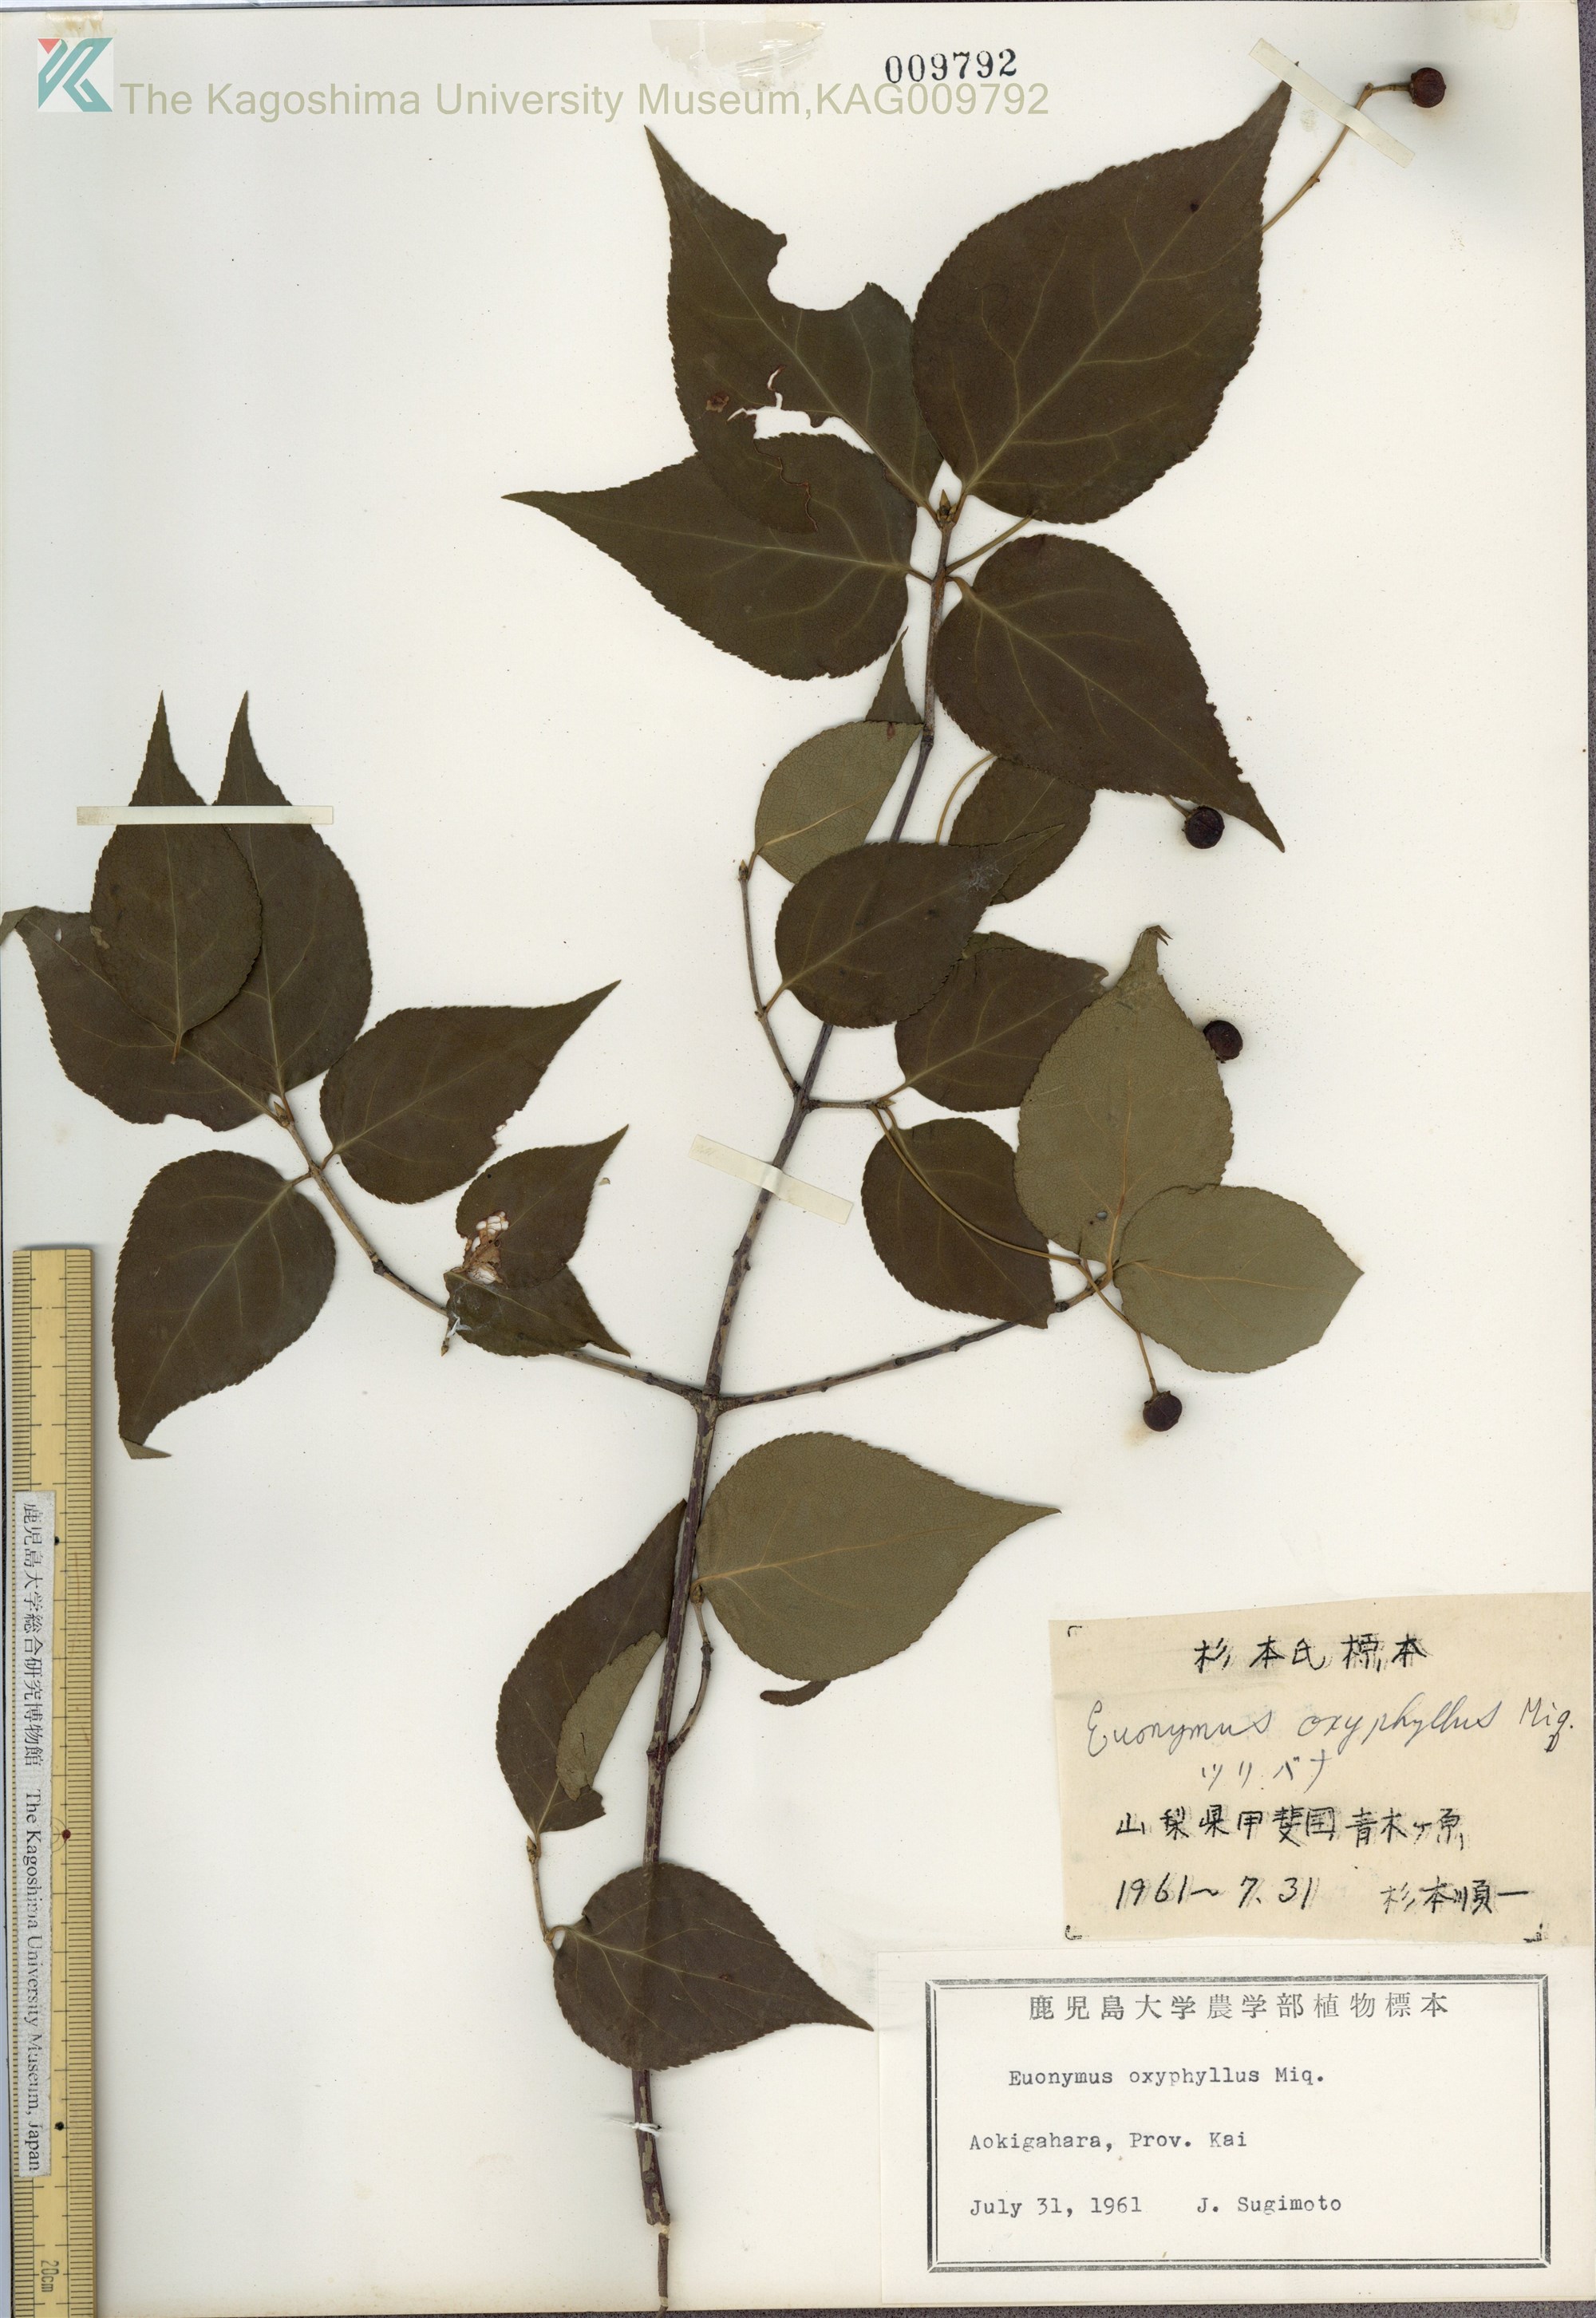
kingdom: Plantae
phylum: Tracheophyta
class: Magnoliopsida
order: Celastrales
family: Celastraceae
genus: Euonymus
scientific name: Euonymus oxyphyllus
